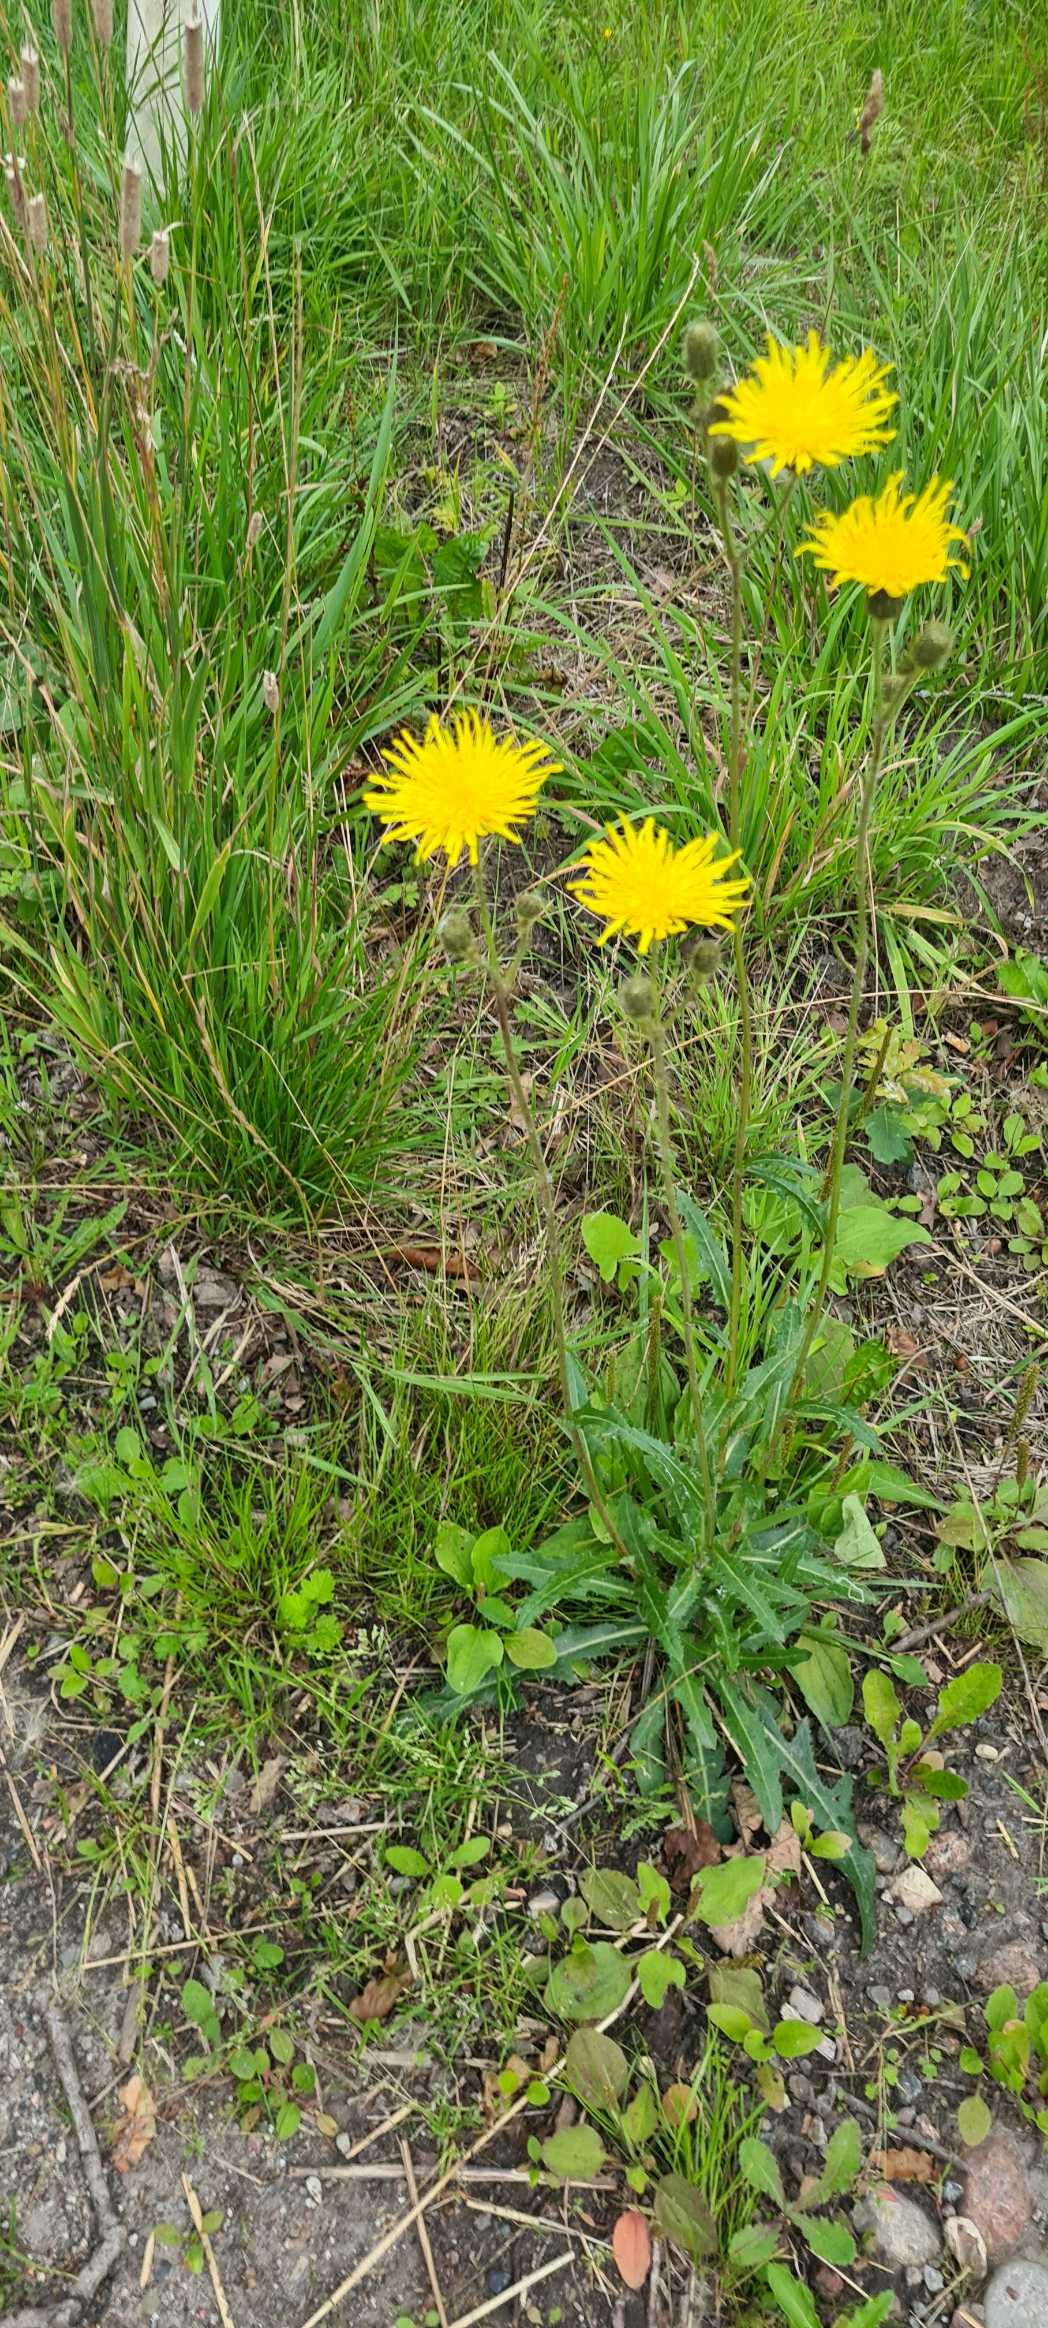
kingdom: Plantae
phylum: Tracheophyta
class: Magnoliopsida
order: Asterales
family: Asteraceae
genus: Sonchus
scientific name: Sonchus arvensis
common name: Ager-svinemælk
